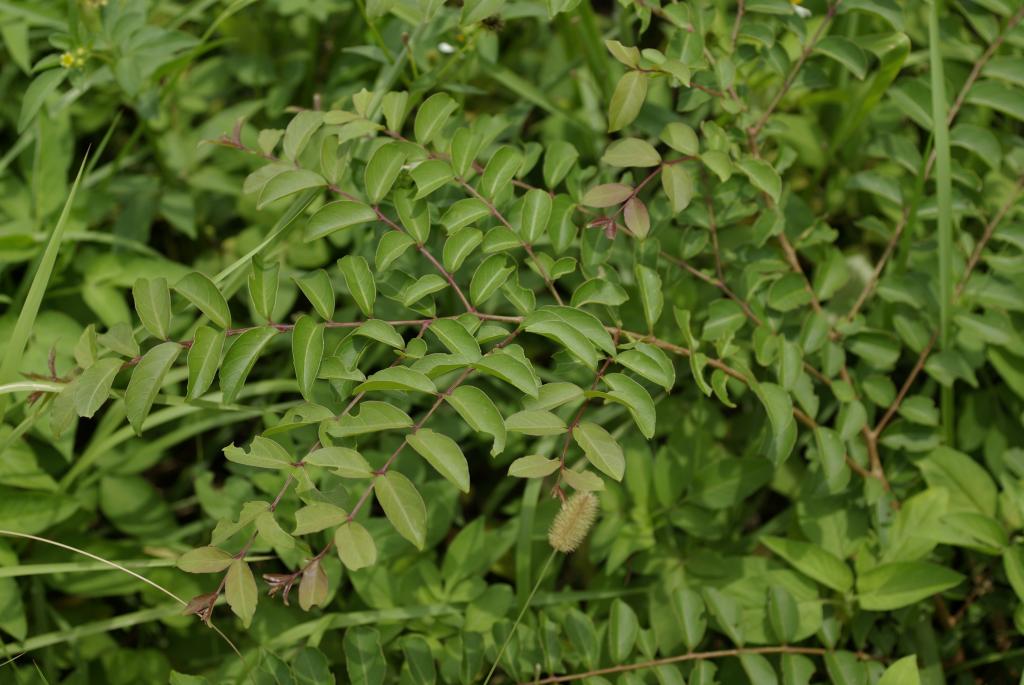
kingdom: Plantae
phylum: Tracheophyta
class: Magnoliopsida
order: Myrtales
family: Lythraceae
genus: Lagerstroemia
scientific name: Lagerstroemia subcostata
